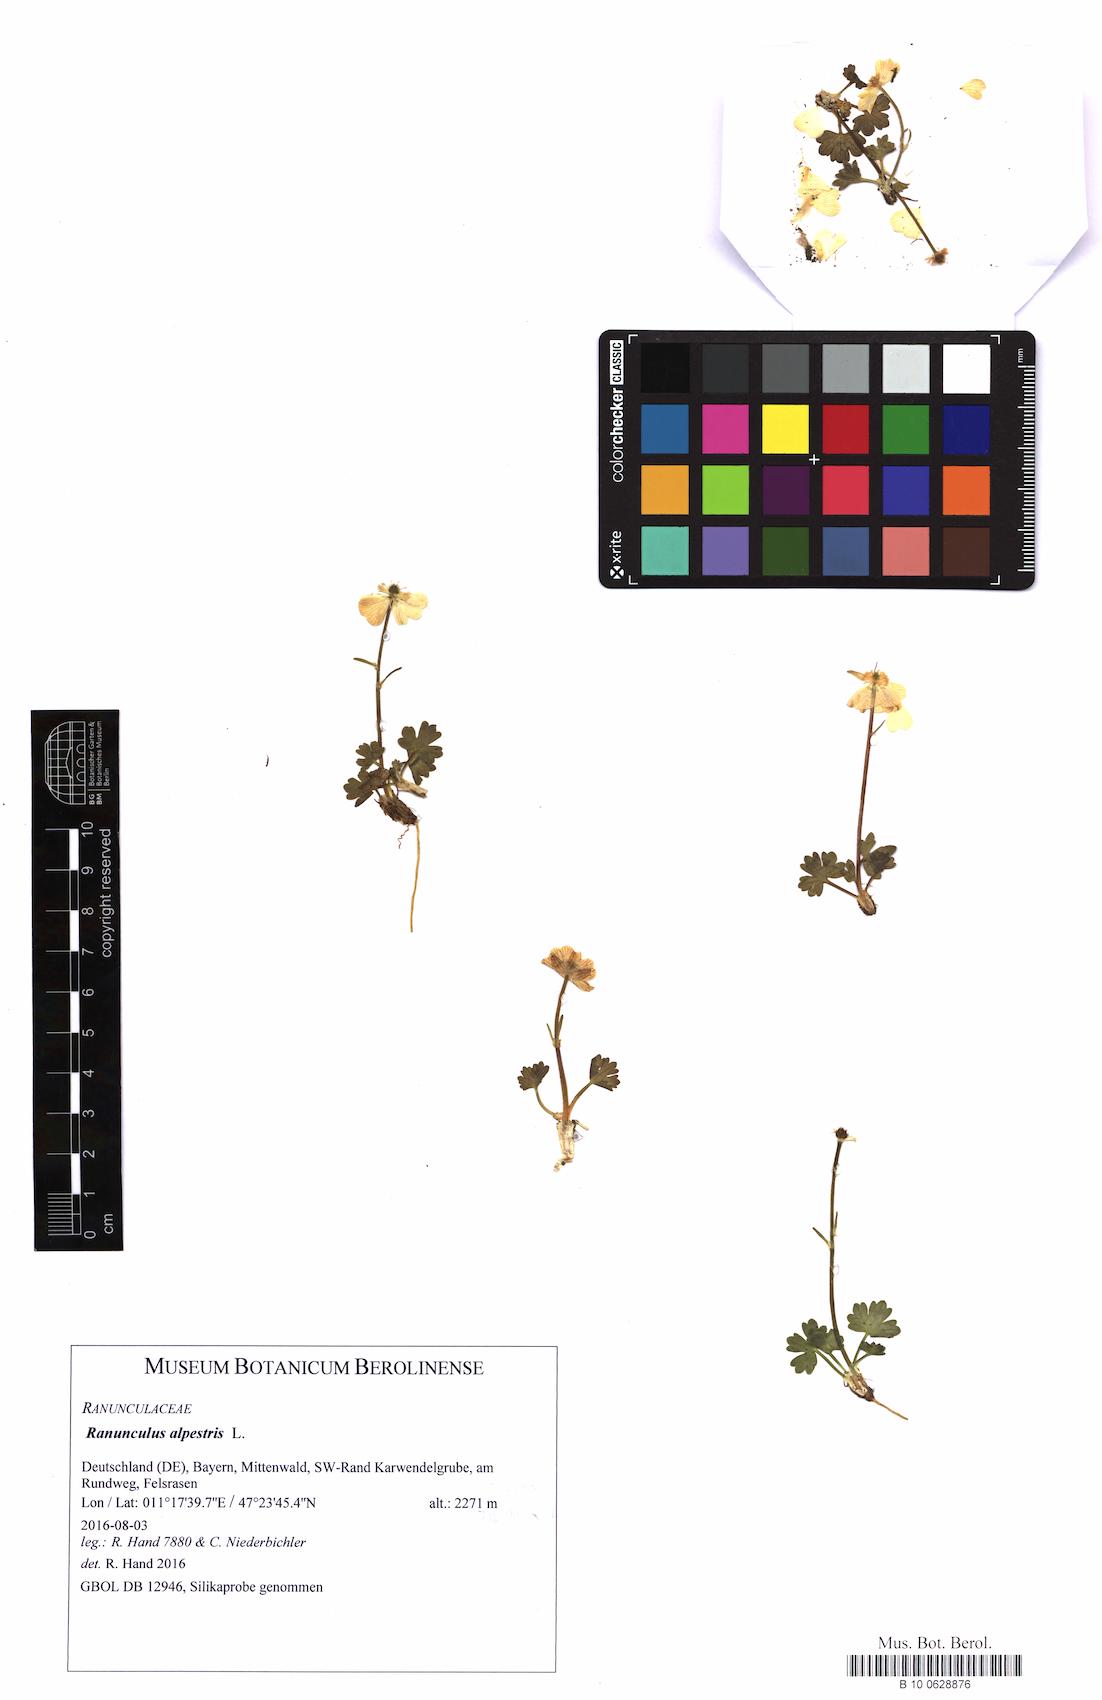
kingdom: Plantae
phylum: Tracheophyta
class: Magnoliopsida
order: Ranunculales
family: Ranunculaceae
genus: Ranunculus
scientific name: Ranunculus alpestris
